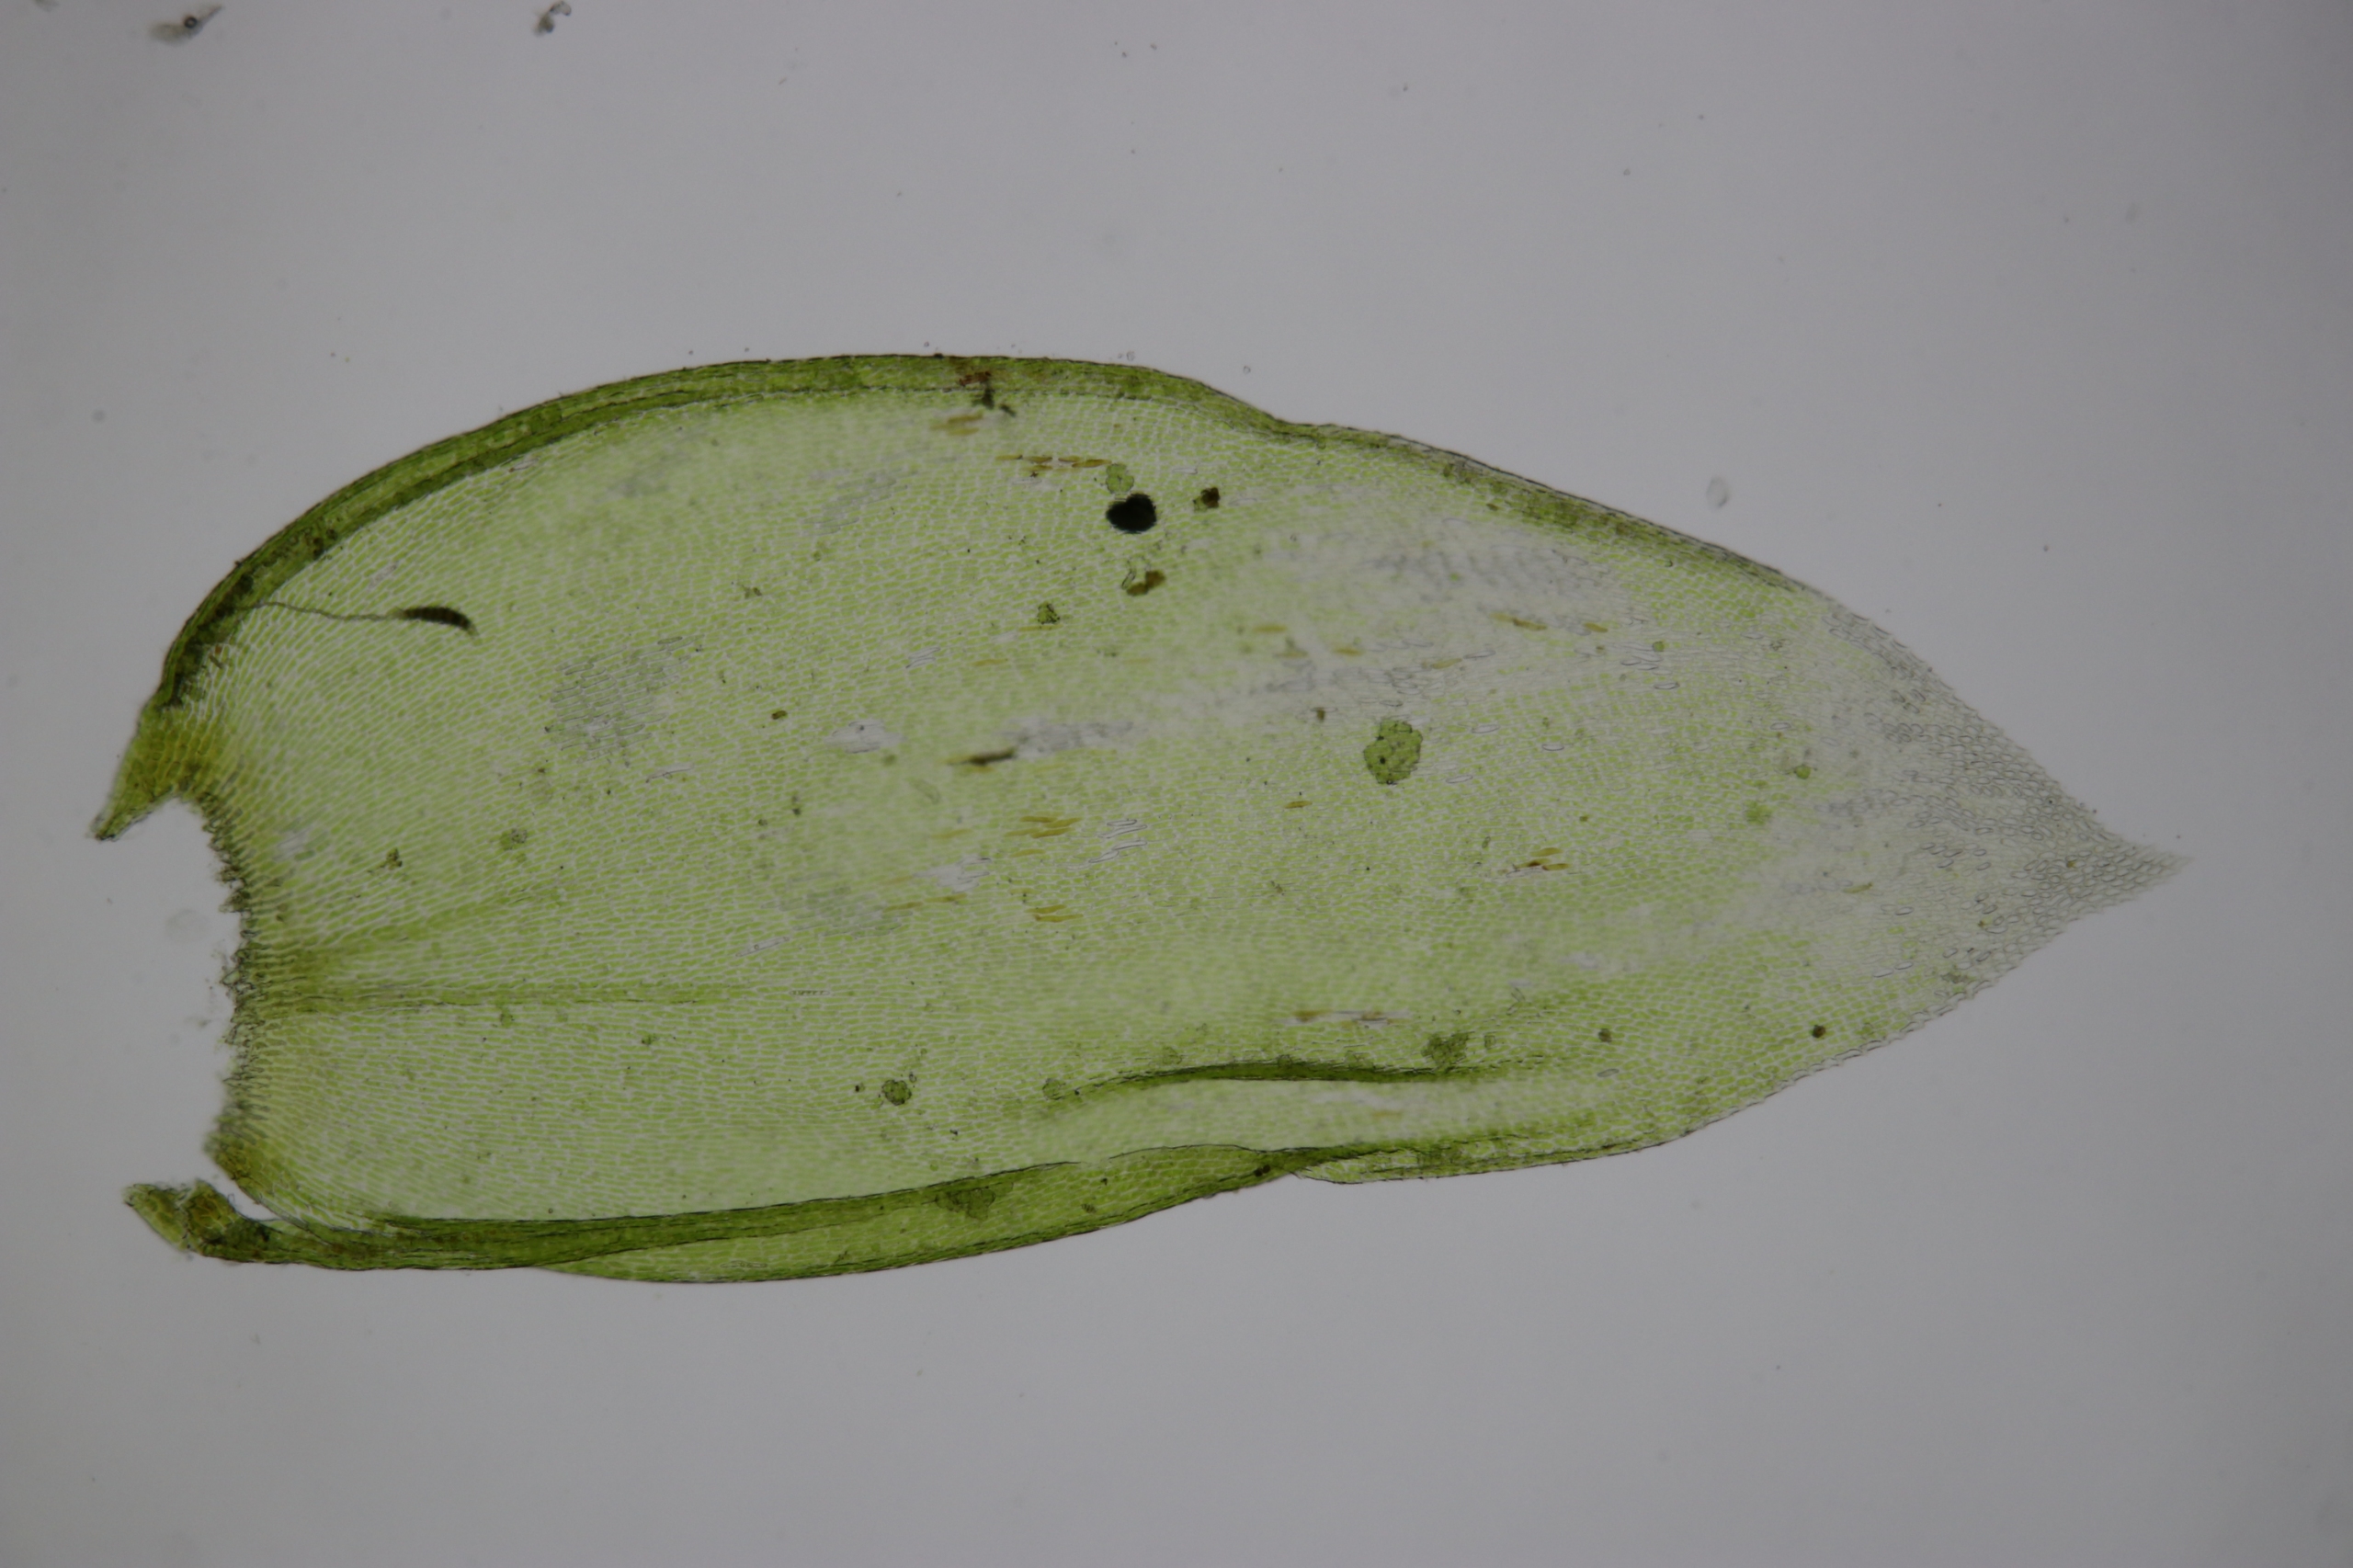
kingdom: Plantae
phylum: Bryophyta
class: Bryopsida
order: Hypnales
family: Neckeraceae
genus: Neckera
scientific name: Neckera pumila
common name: Lav fladmos
